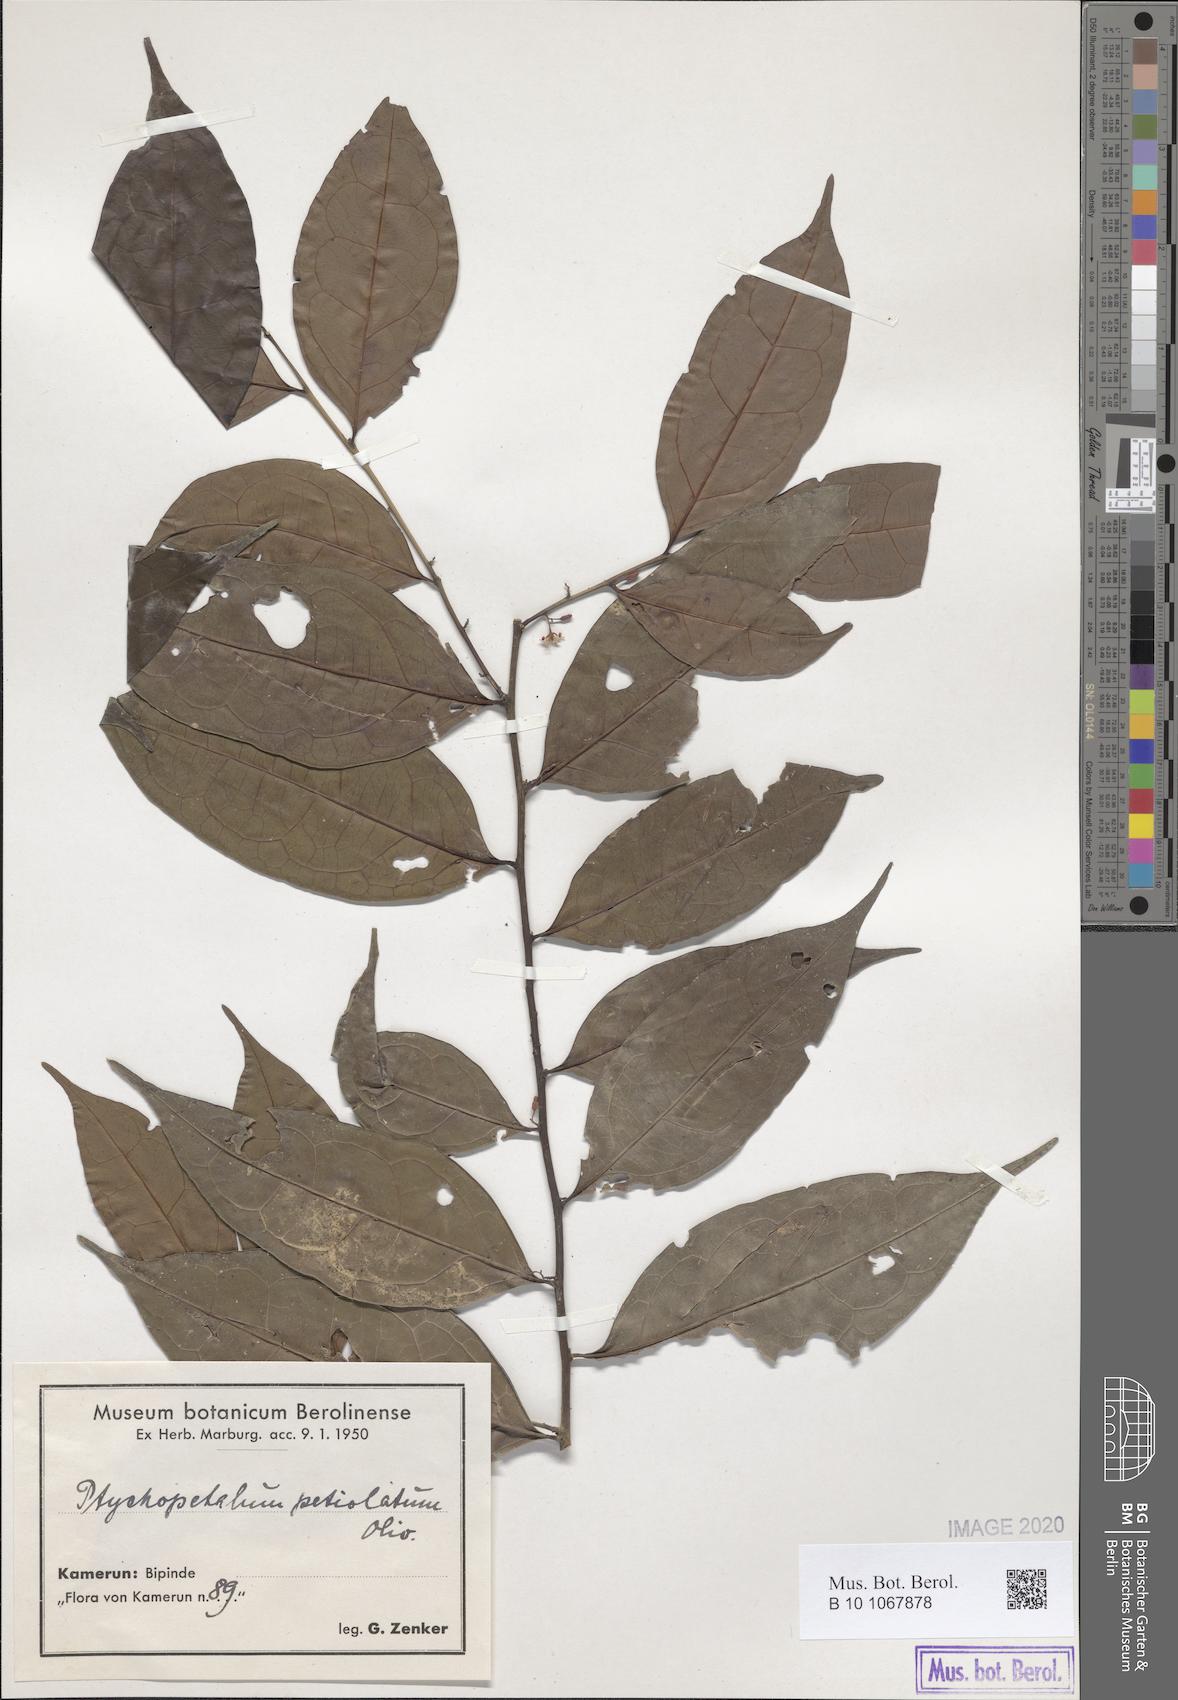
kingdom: Plantae
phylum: Tracheophyta
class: Magnoliopsida
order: Santalales
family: Olacaceae
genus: Ptychopetalum
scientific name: Ptychopetalum petiolatum
